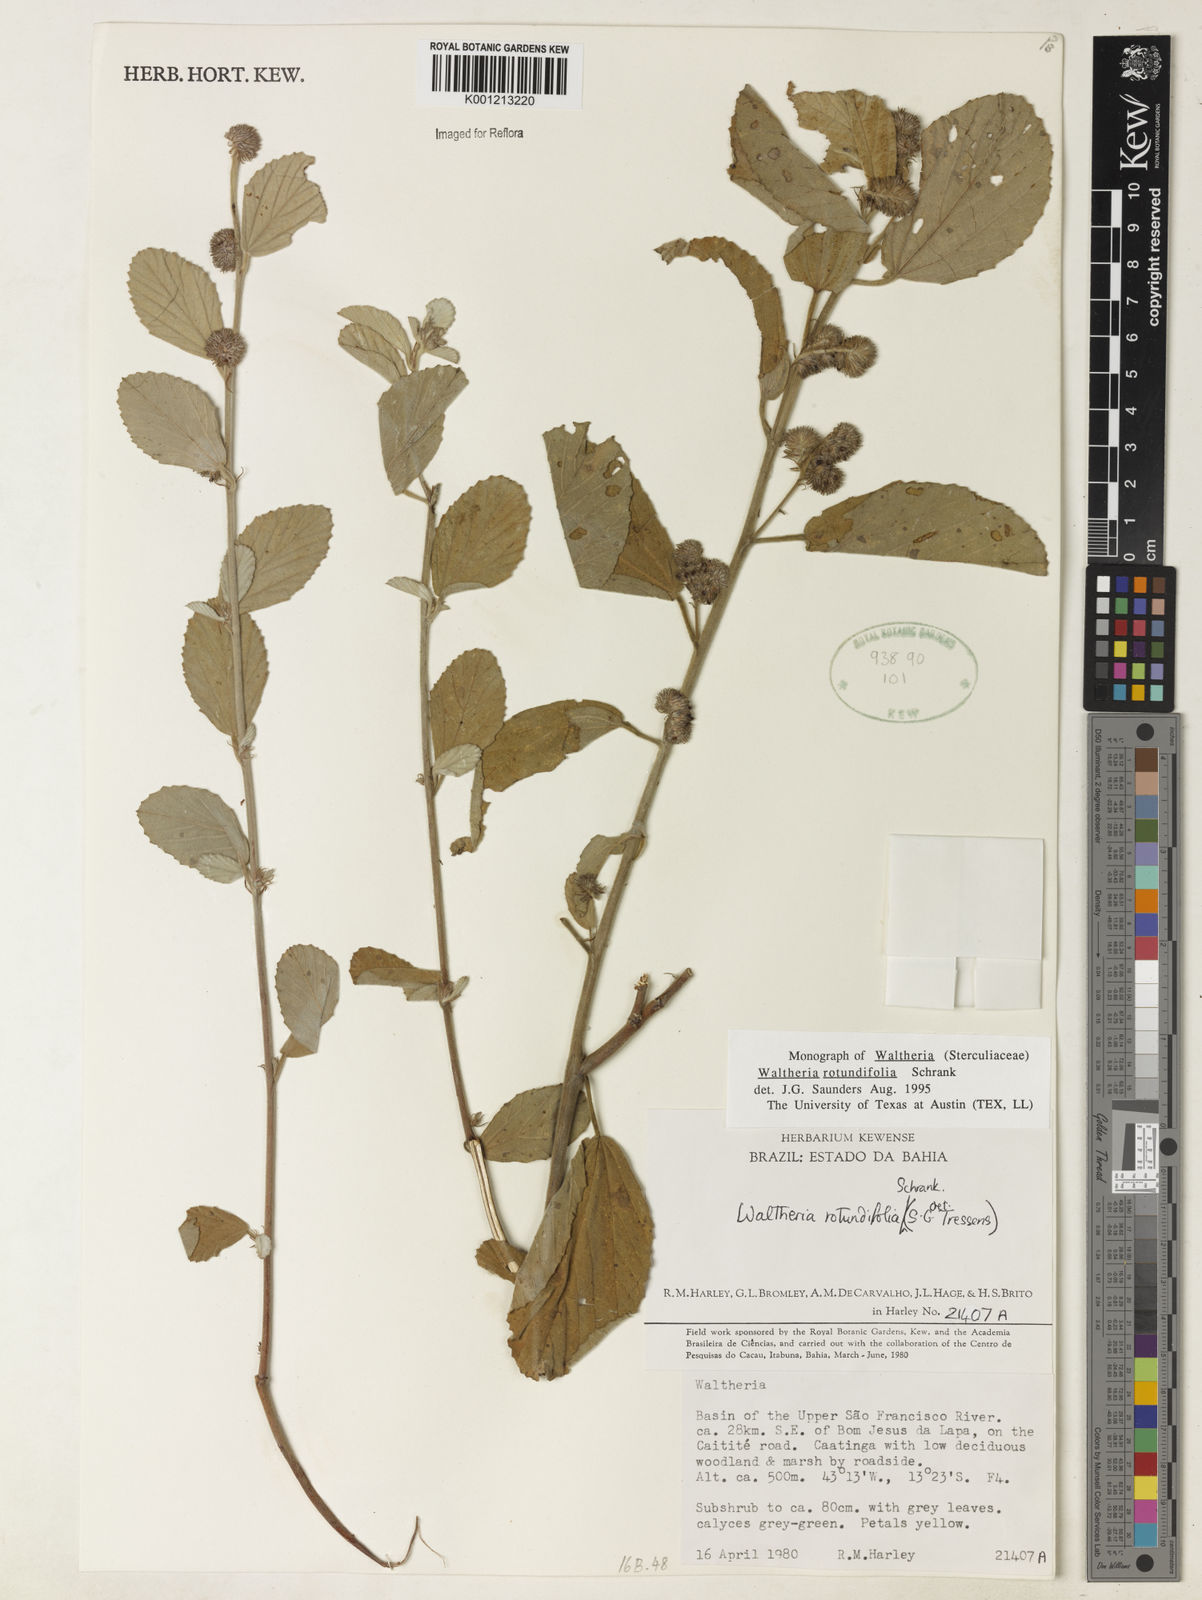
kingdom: Plantae
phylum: Tracheophyta
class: Magnoliopsida
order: Malvales
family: Malvaceae
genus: Waltheria
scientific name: Waltheria rotundifolia
